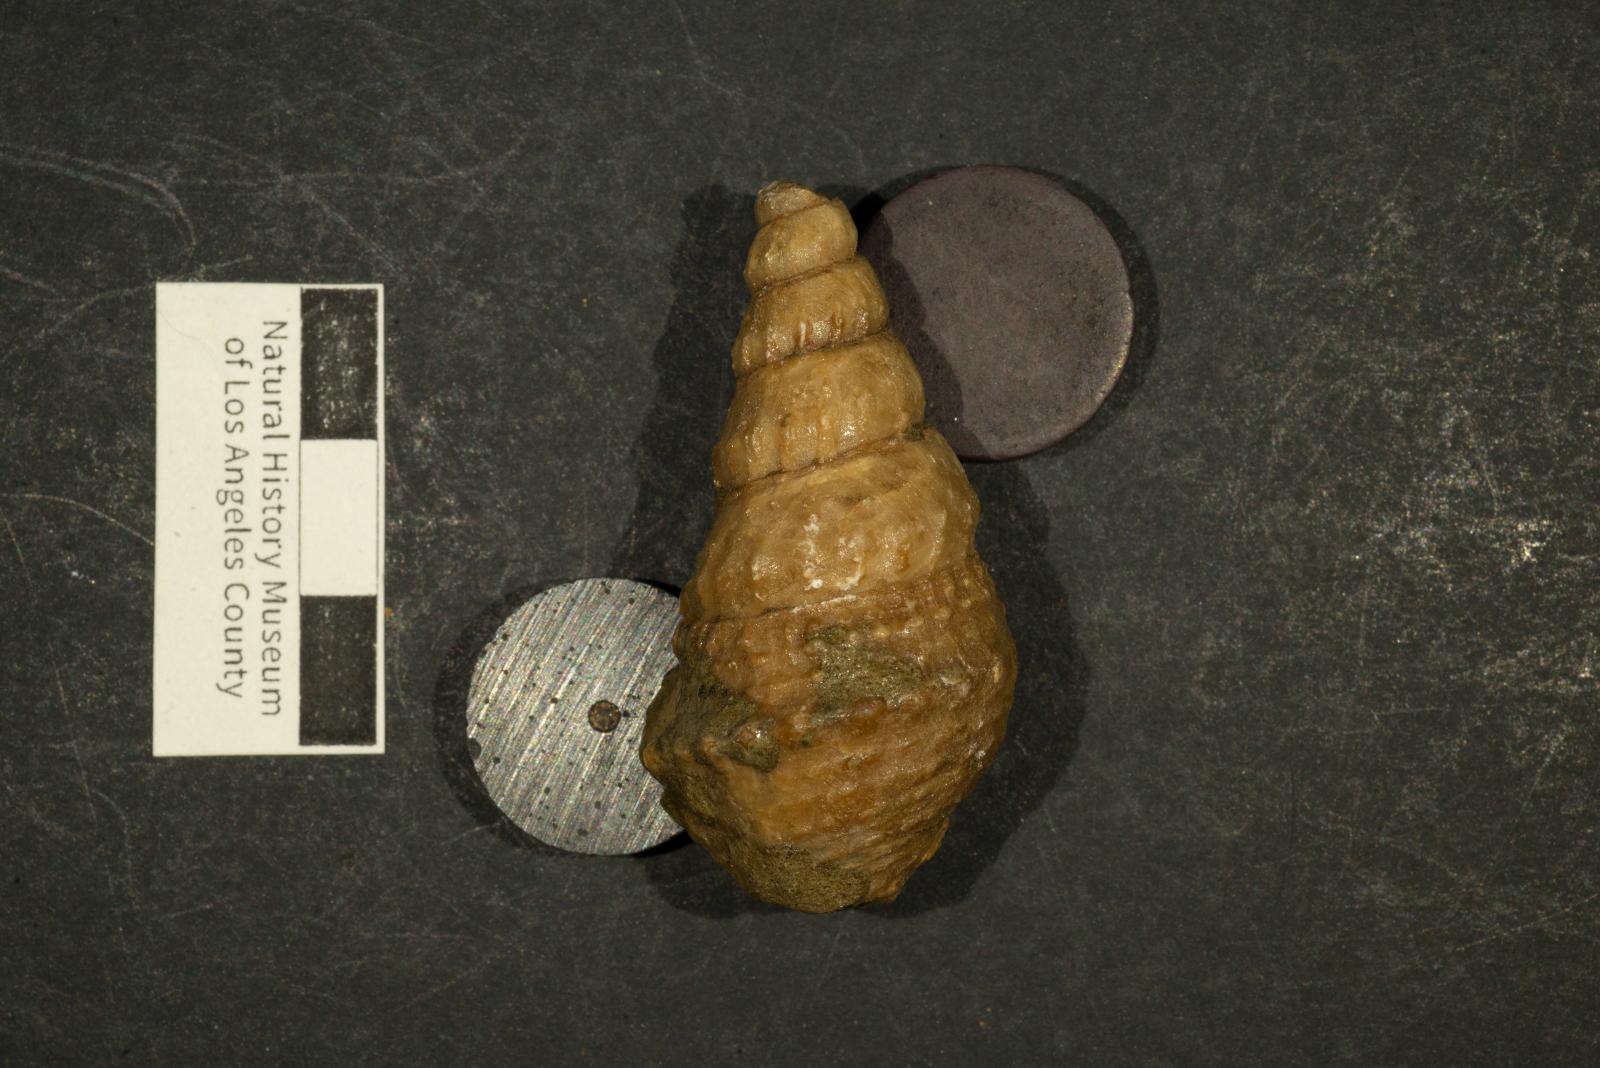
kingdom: Animalia
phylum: Mollusca
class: Gastropoda
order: Littorinimorpha
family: Aporrhaidae
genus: Helicaulax
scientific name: Helicaulax Anchura tricosa
